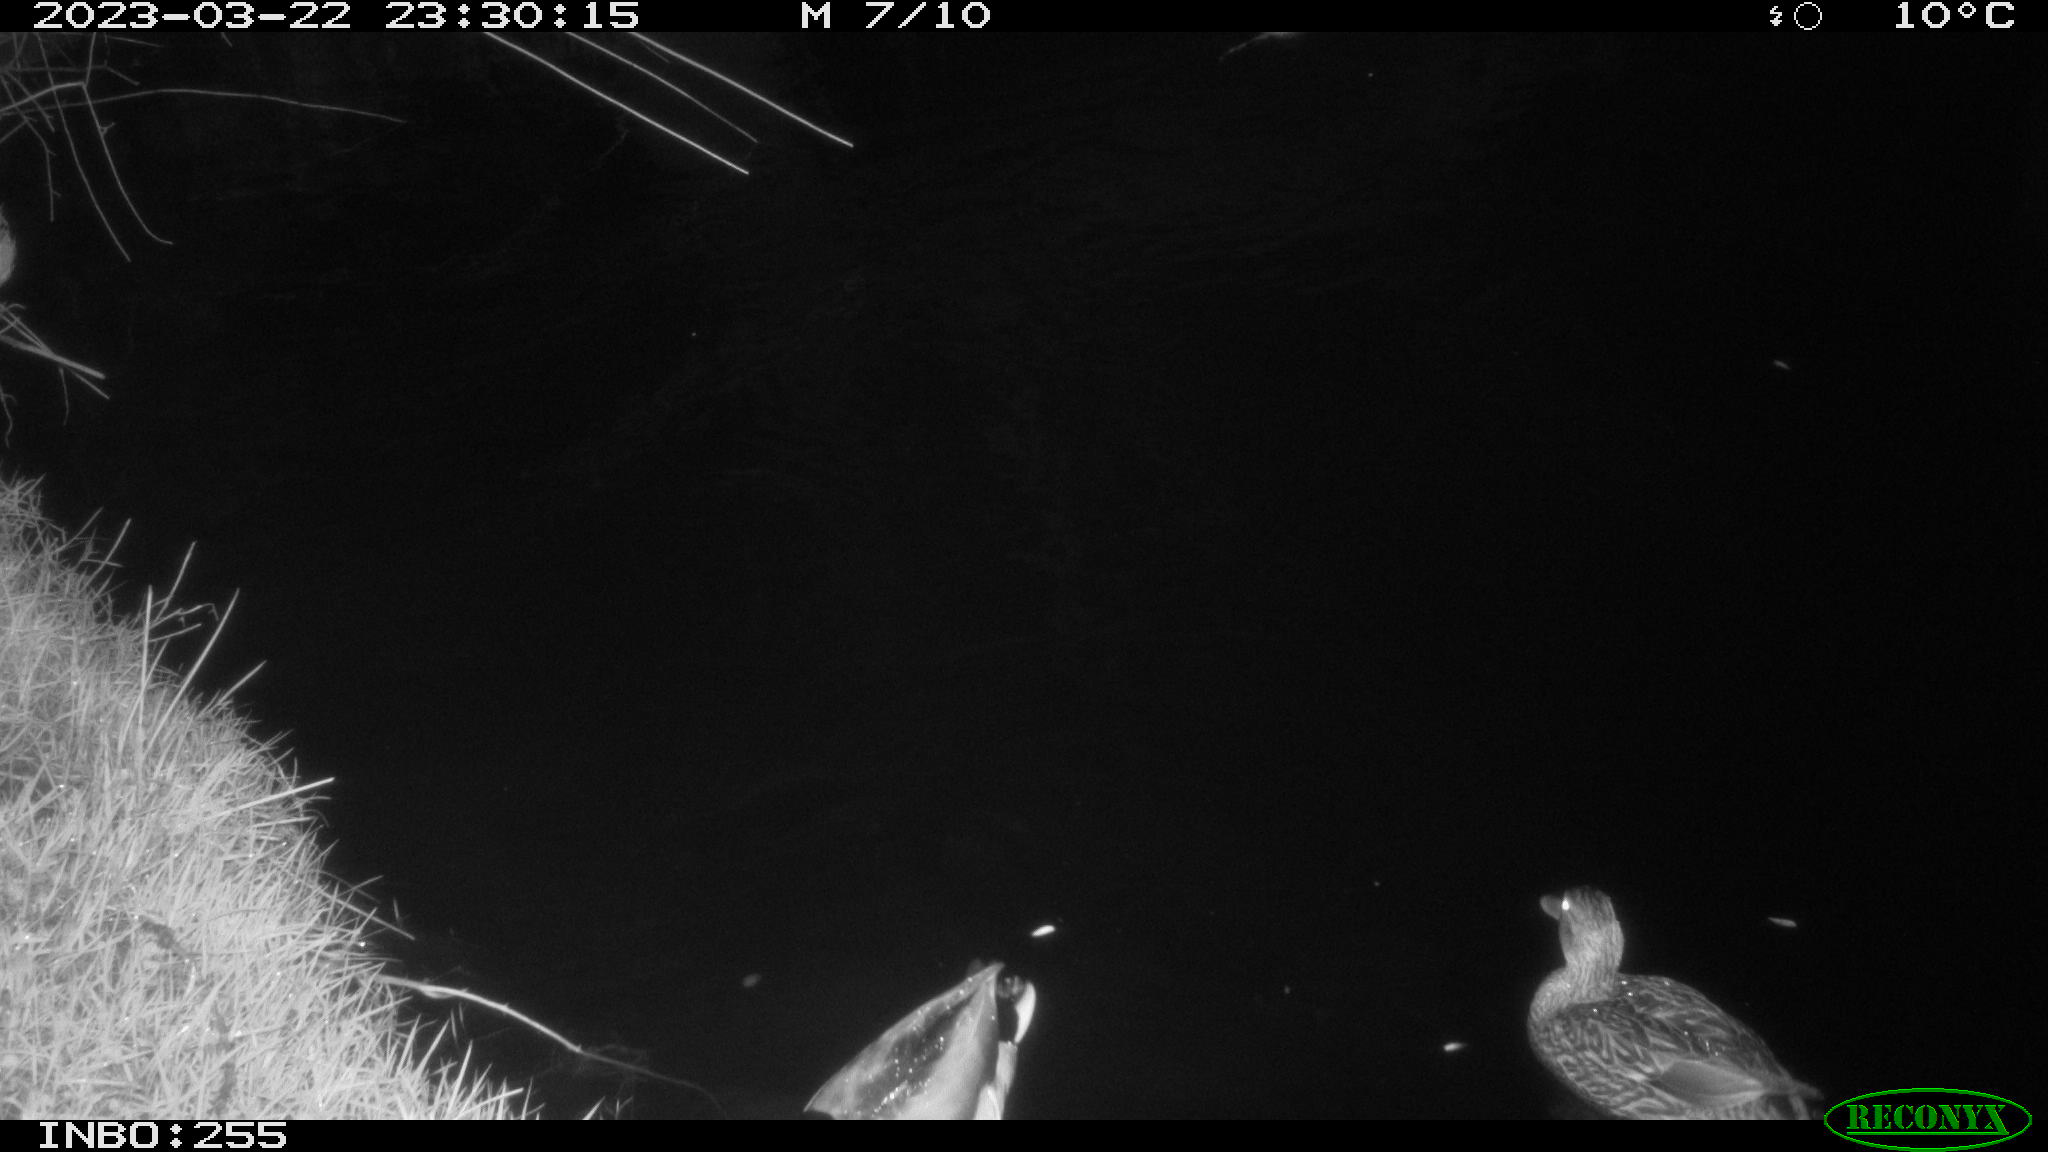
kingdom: Animalia
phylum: Chordata
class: Aves
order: Anseriformes
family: Anatidae
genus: Anas
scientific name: Anas
